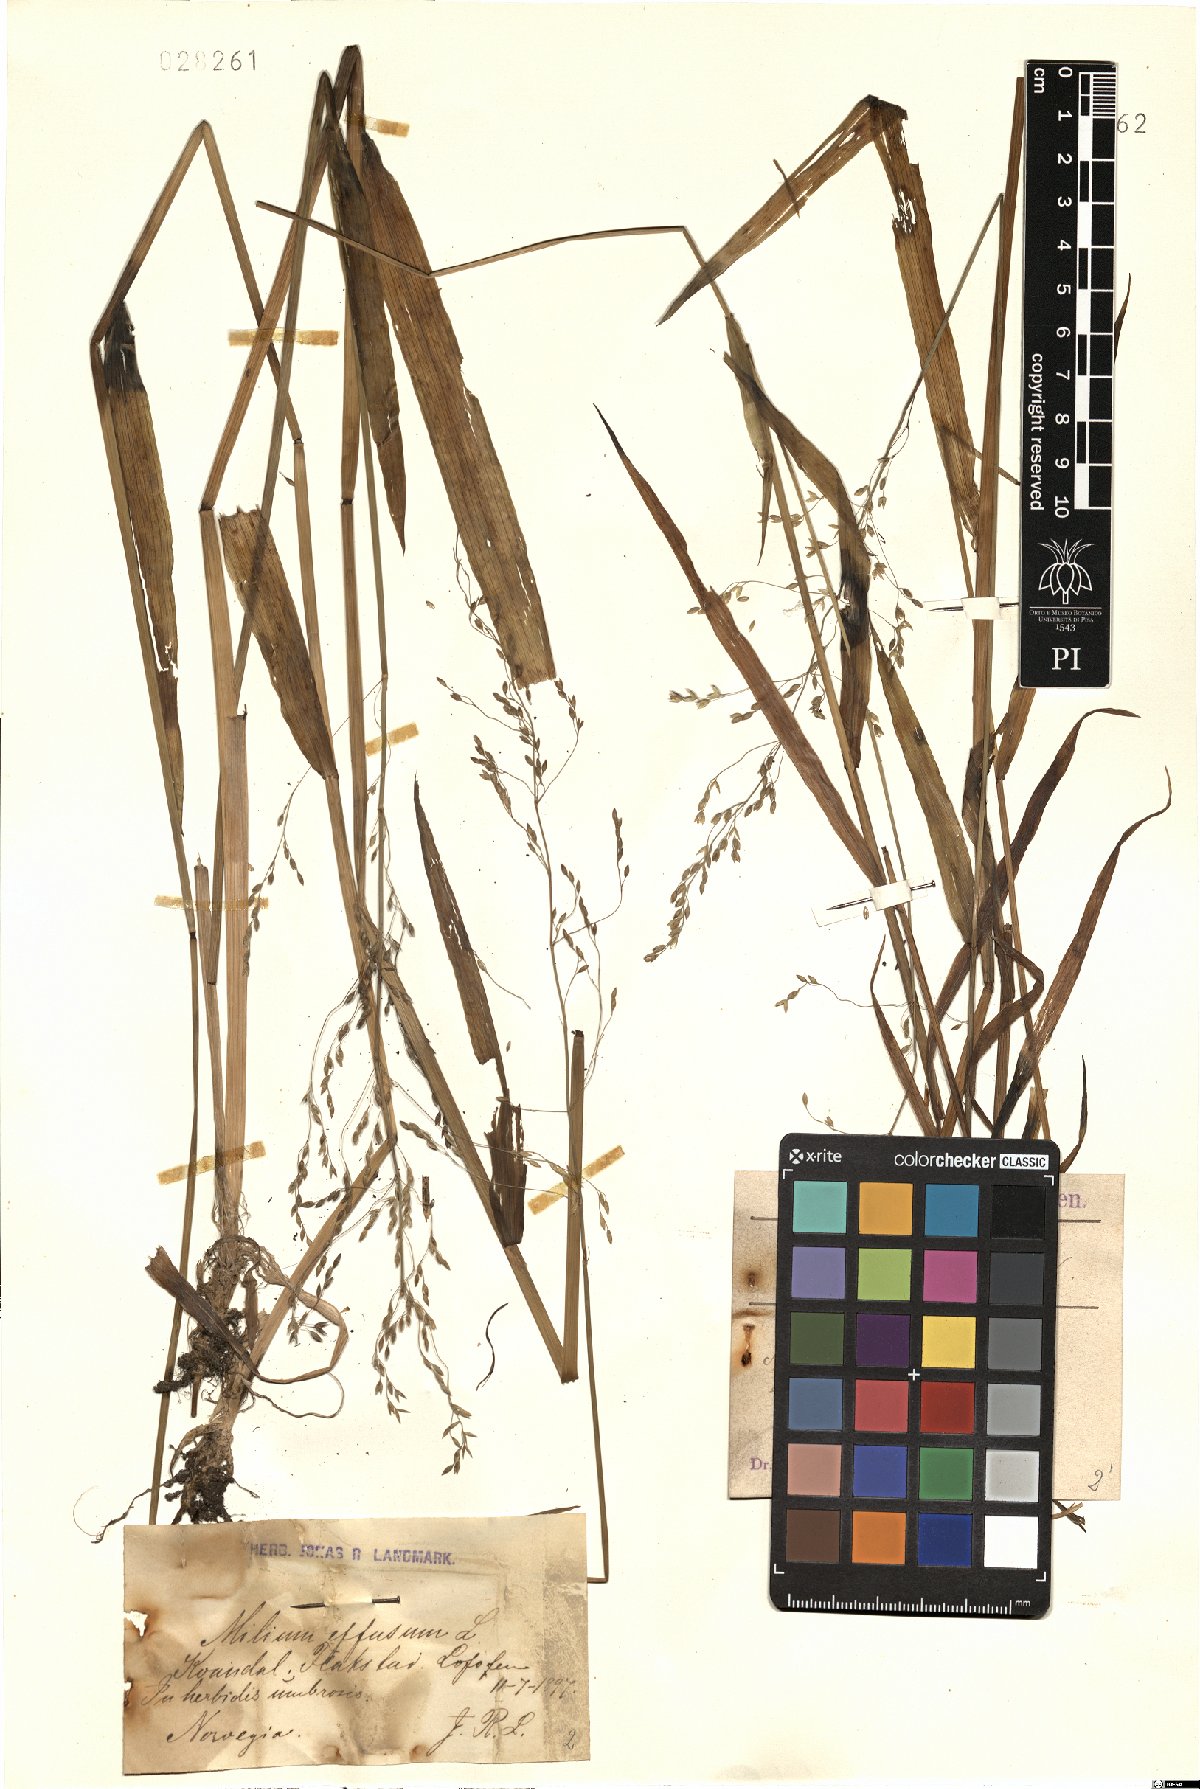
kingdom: Plantae
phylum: Tracheophyta
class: Liliopsida
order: Poales
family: Poaceae
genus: Milium
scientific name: Milium effusum
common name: Wood millet
